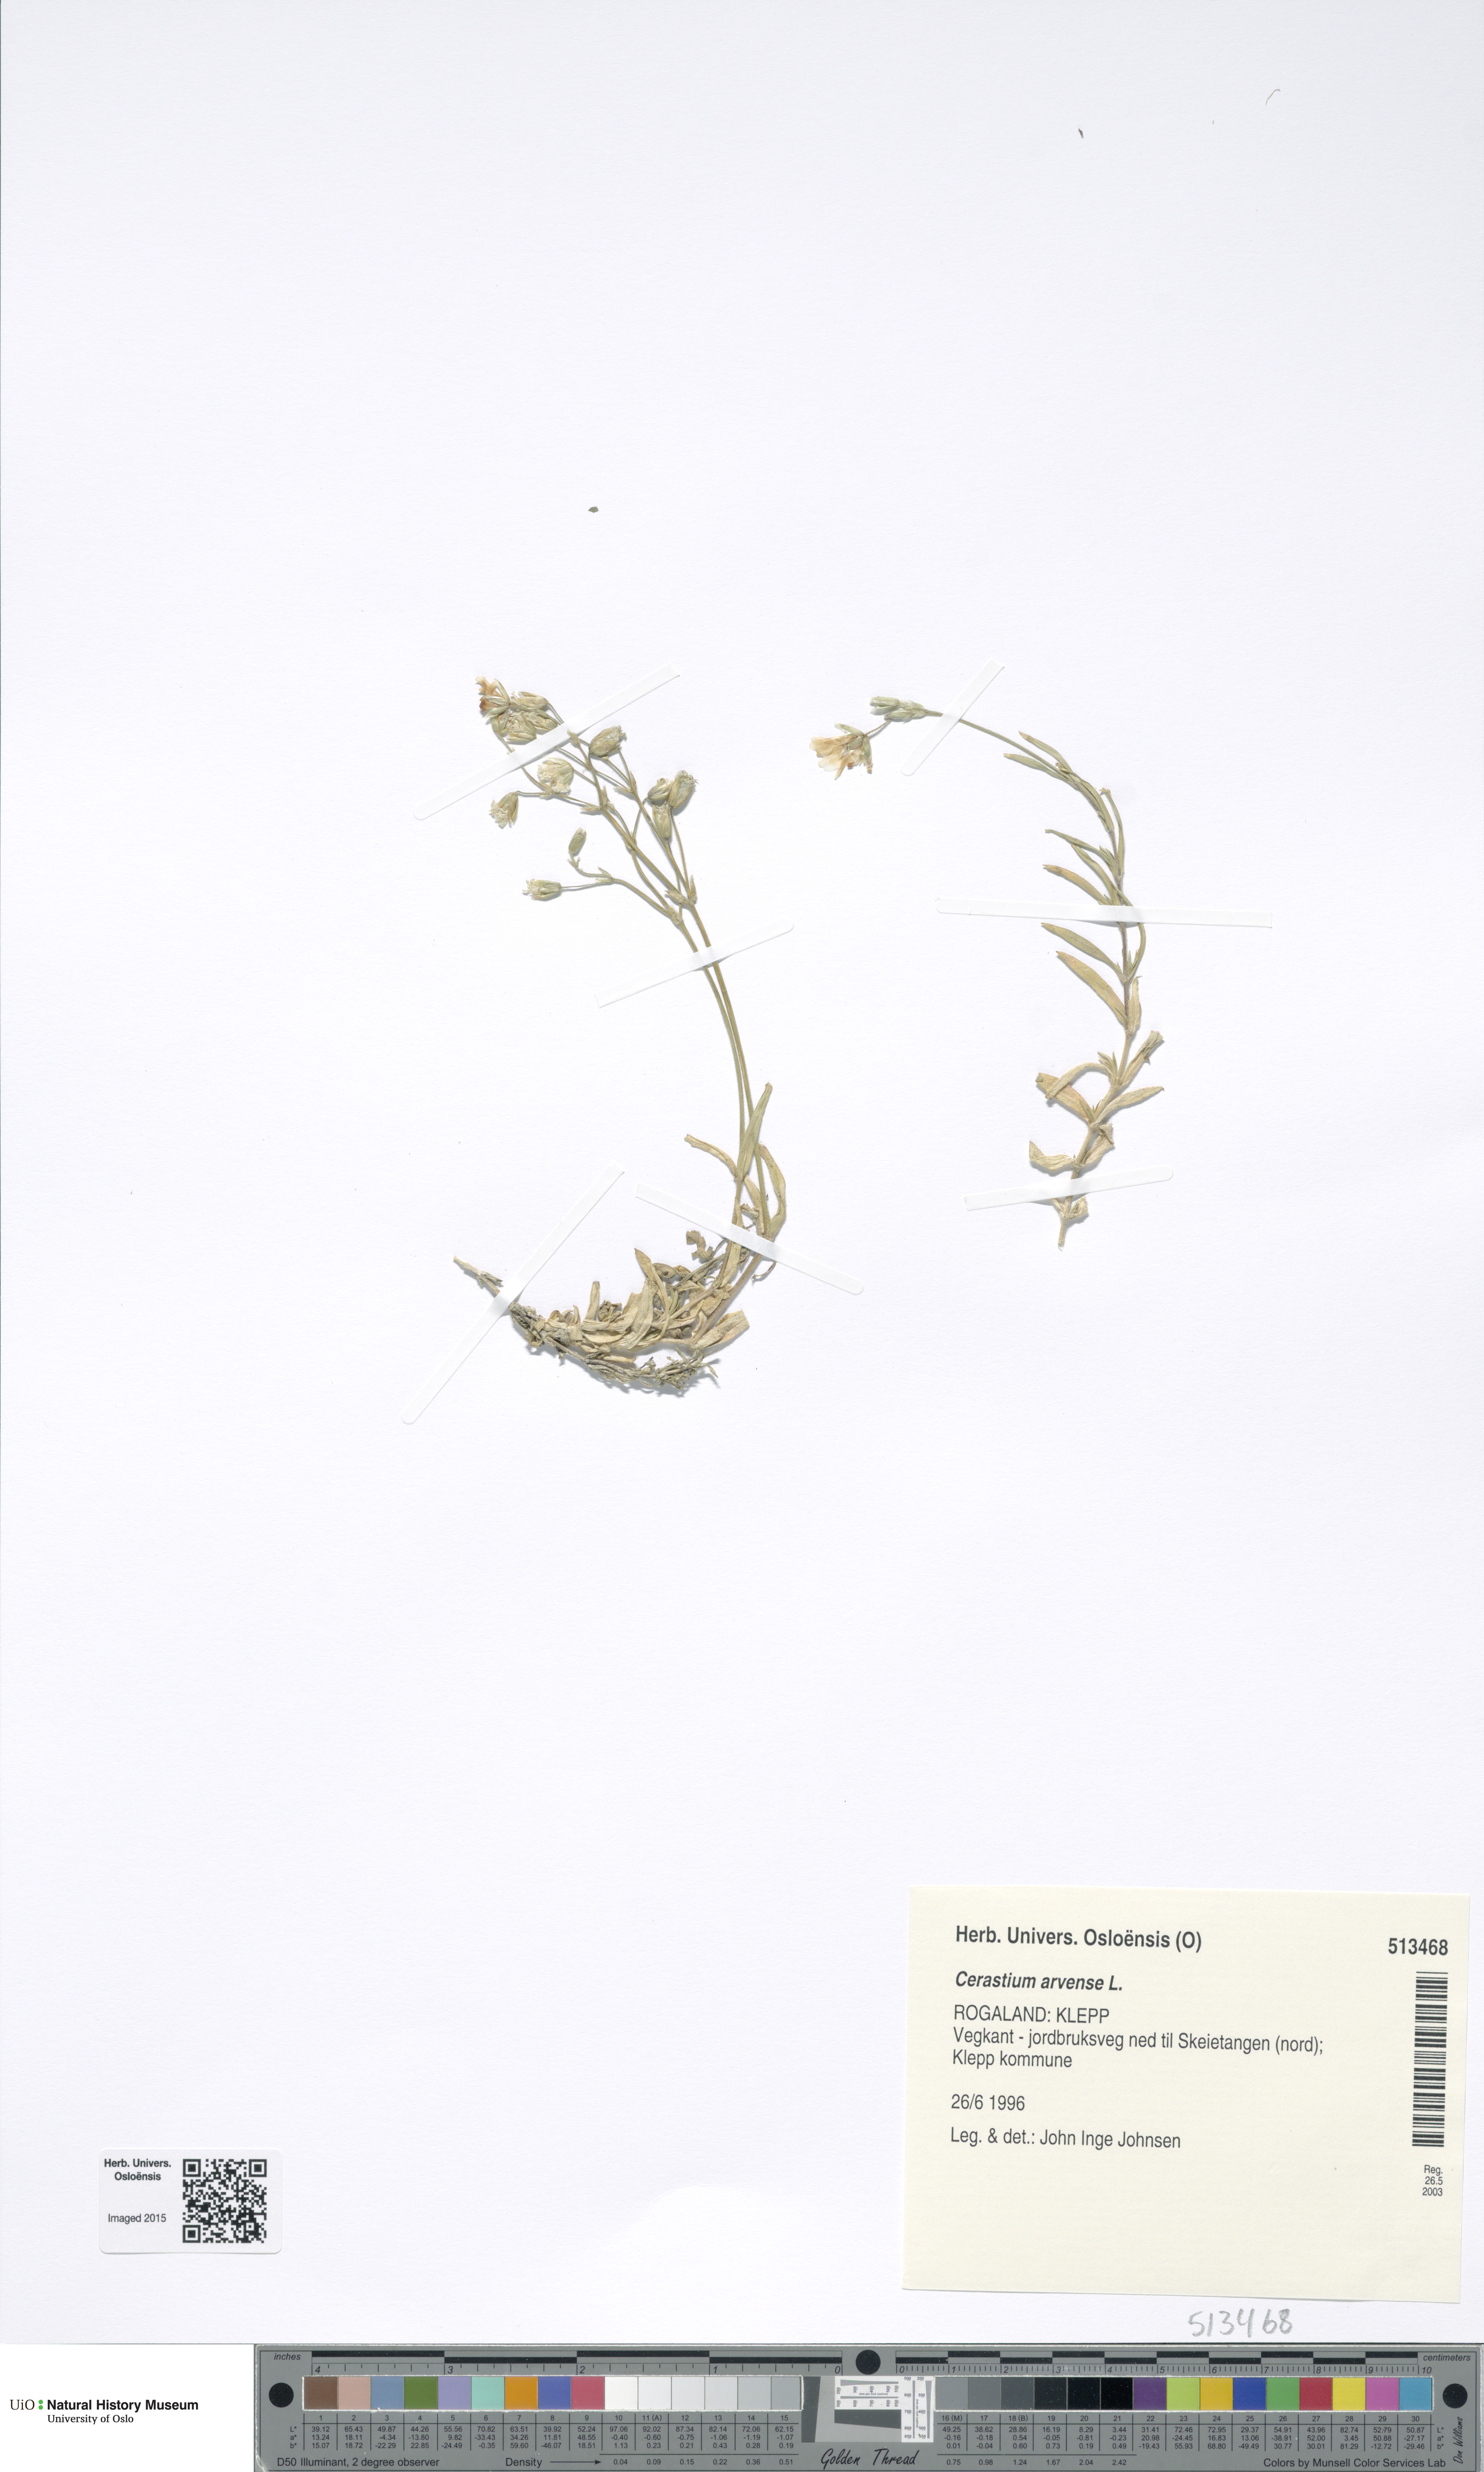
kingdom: Plantae
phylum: Tracheophyta
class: Magnoliopsida
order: Caryophyllales
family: Caryophyllaceae
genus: Cerastium
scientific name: Cerastium arvense
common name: Field mouse-ear
